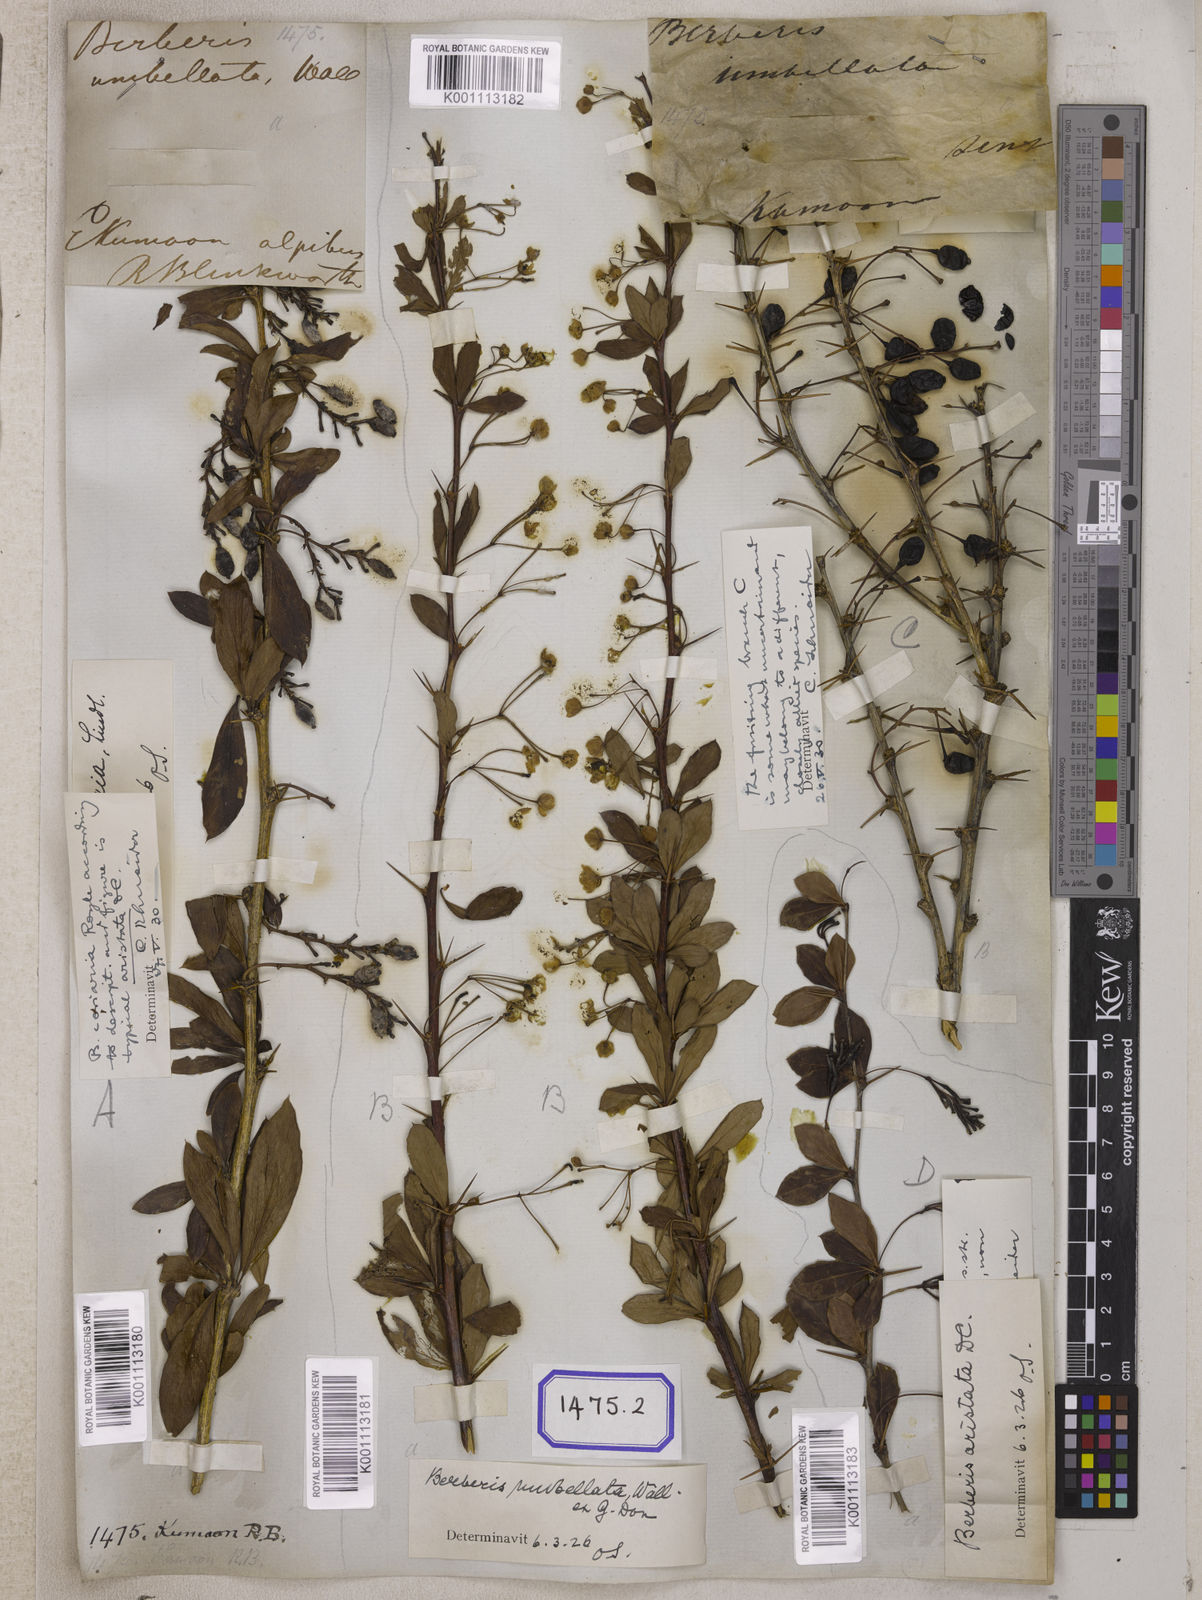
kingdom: Plantae
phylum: Tracheophyta
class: Magnoliopsida
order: Ranunculales
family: Berberidaceae
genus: Berberis
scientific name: Berberis
